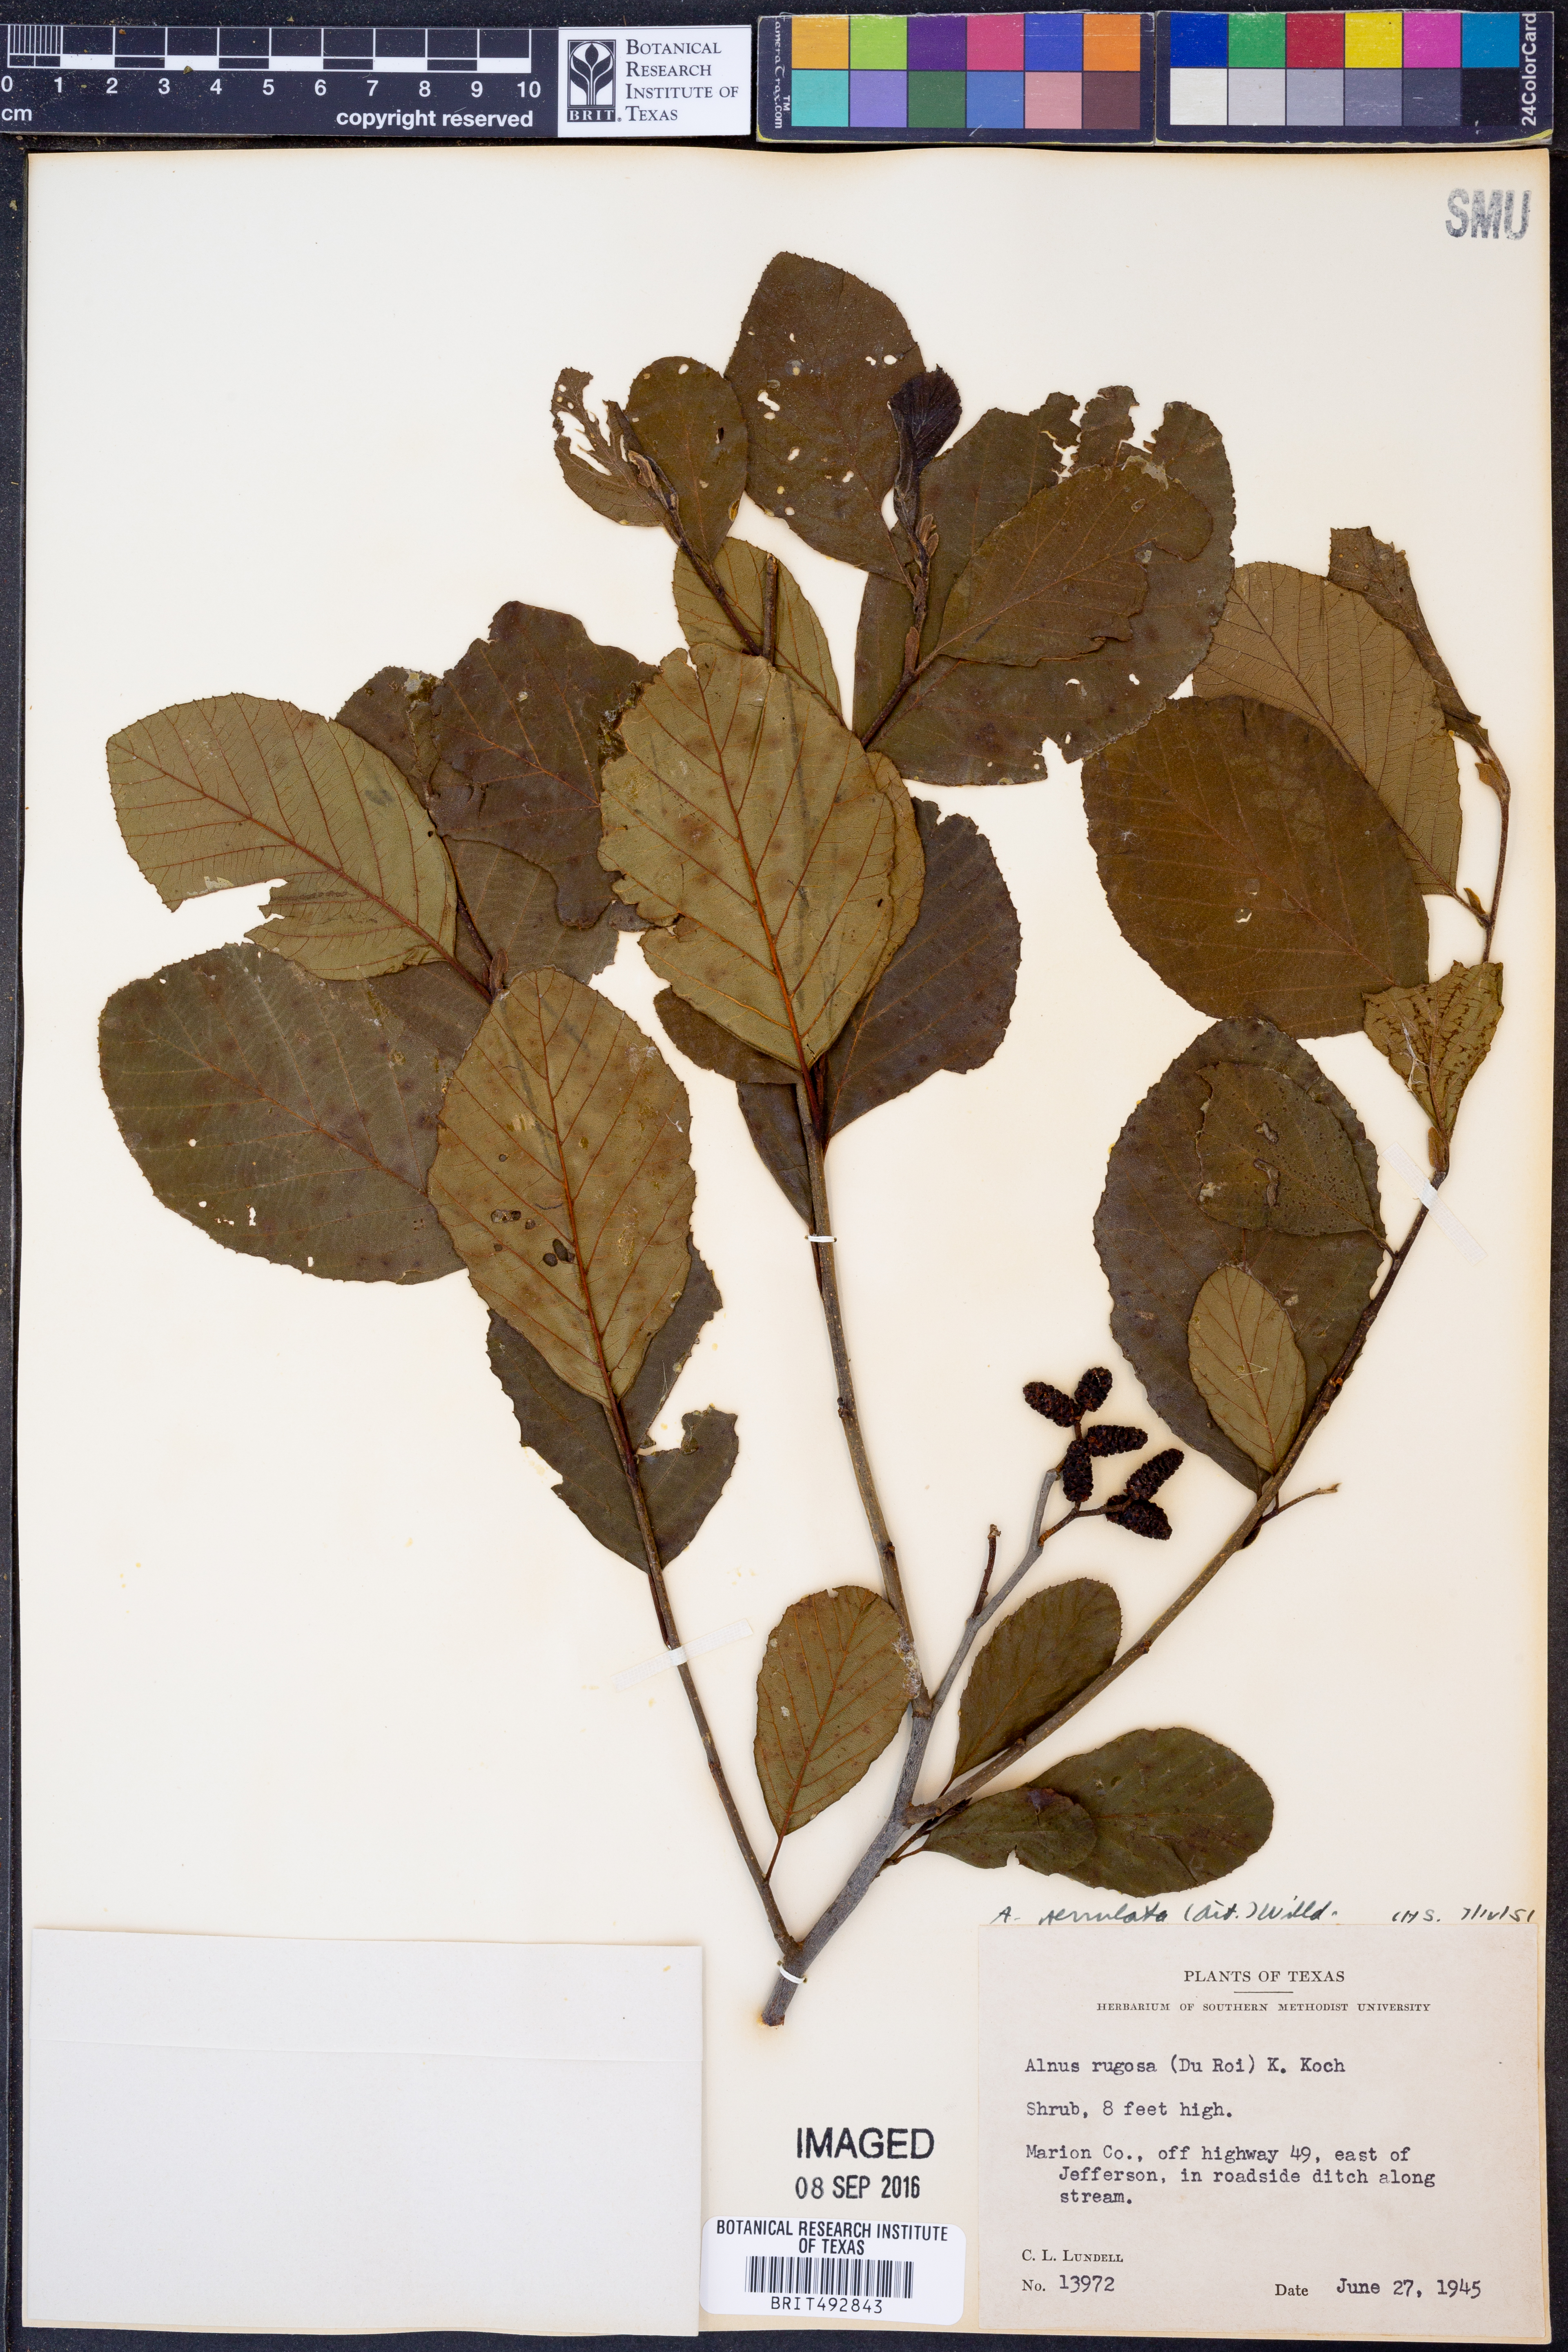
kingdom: Plantae
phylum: Tracheophyta
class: Magnoliopsida
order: Fagales
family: Betulaceae
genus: Alnus
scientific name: Alnus serrulata
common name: Hazel alder
